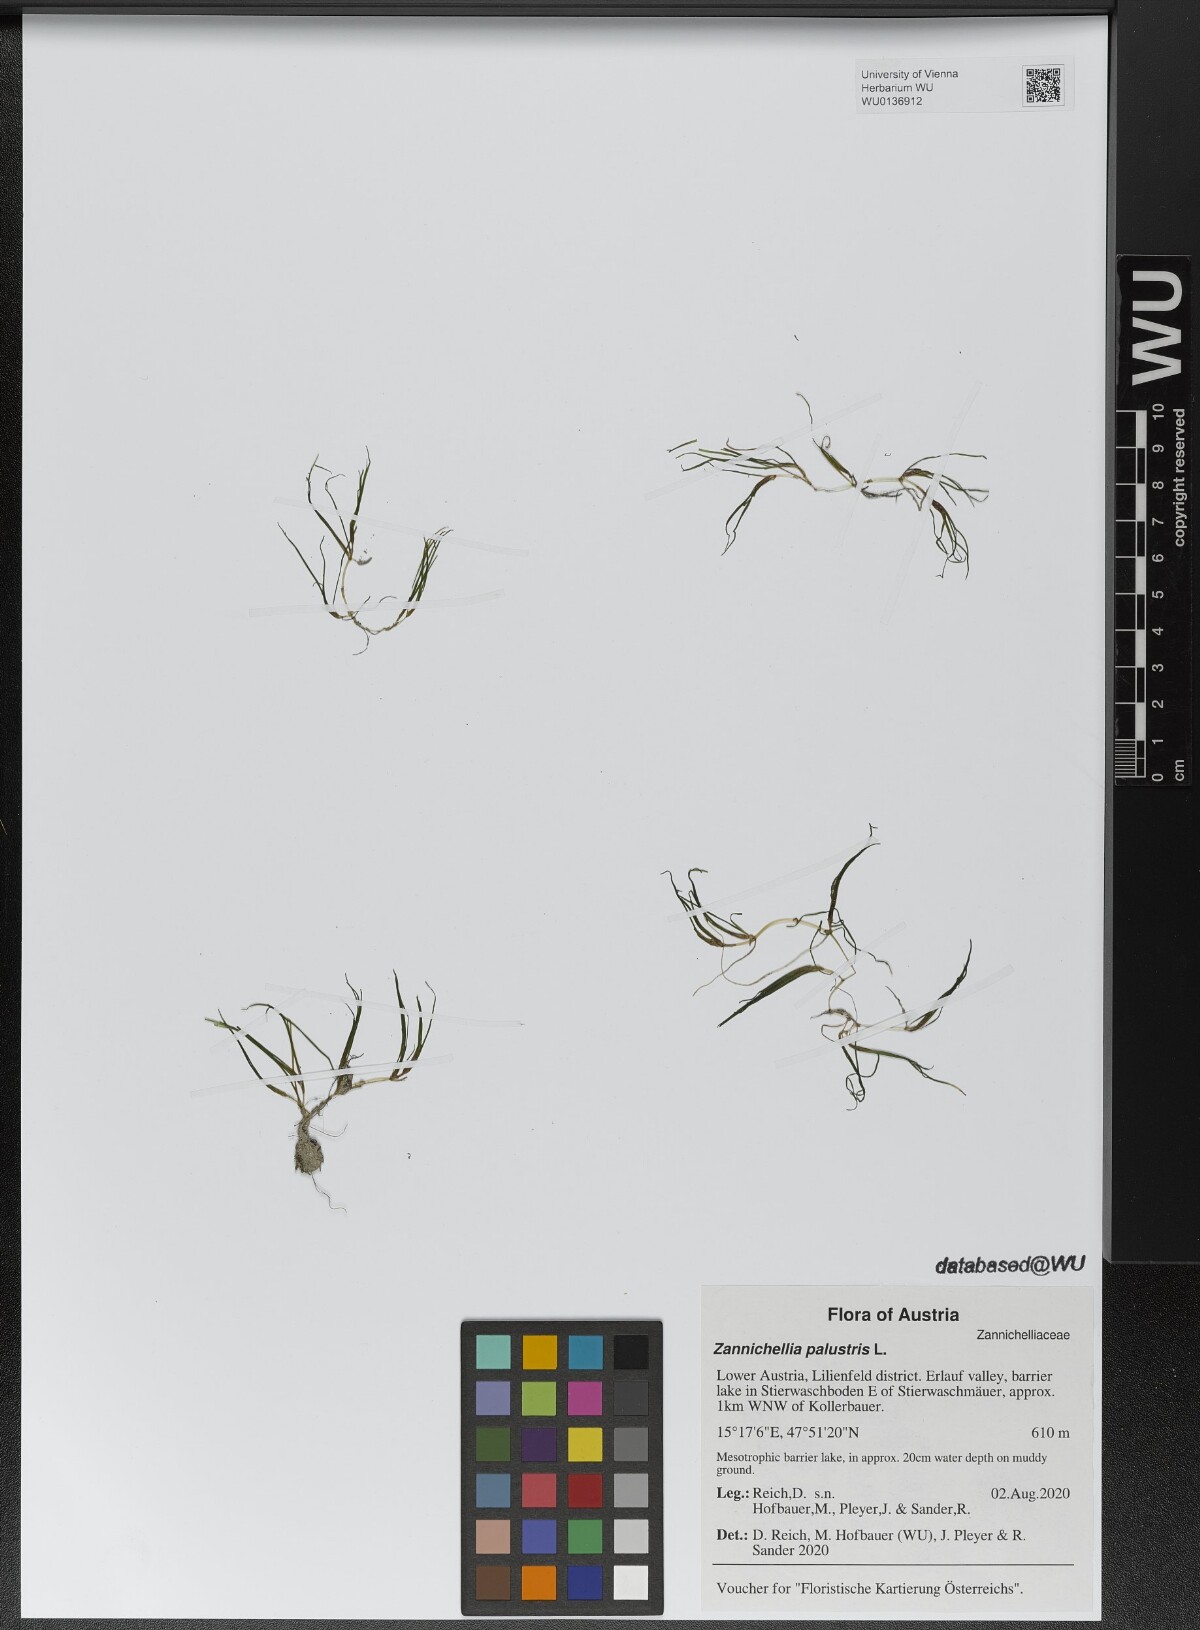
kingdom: Plantae
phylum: Tracheophyta
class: Liliopsida
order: Alismatales
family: Potamogetonaceae
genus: Zannichellia
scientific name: Zannichellia palustris
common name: Horned pondweed
